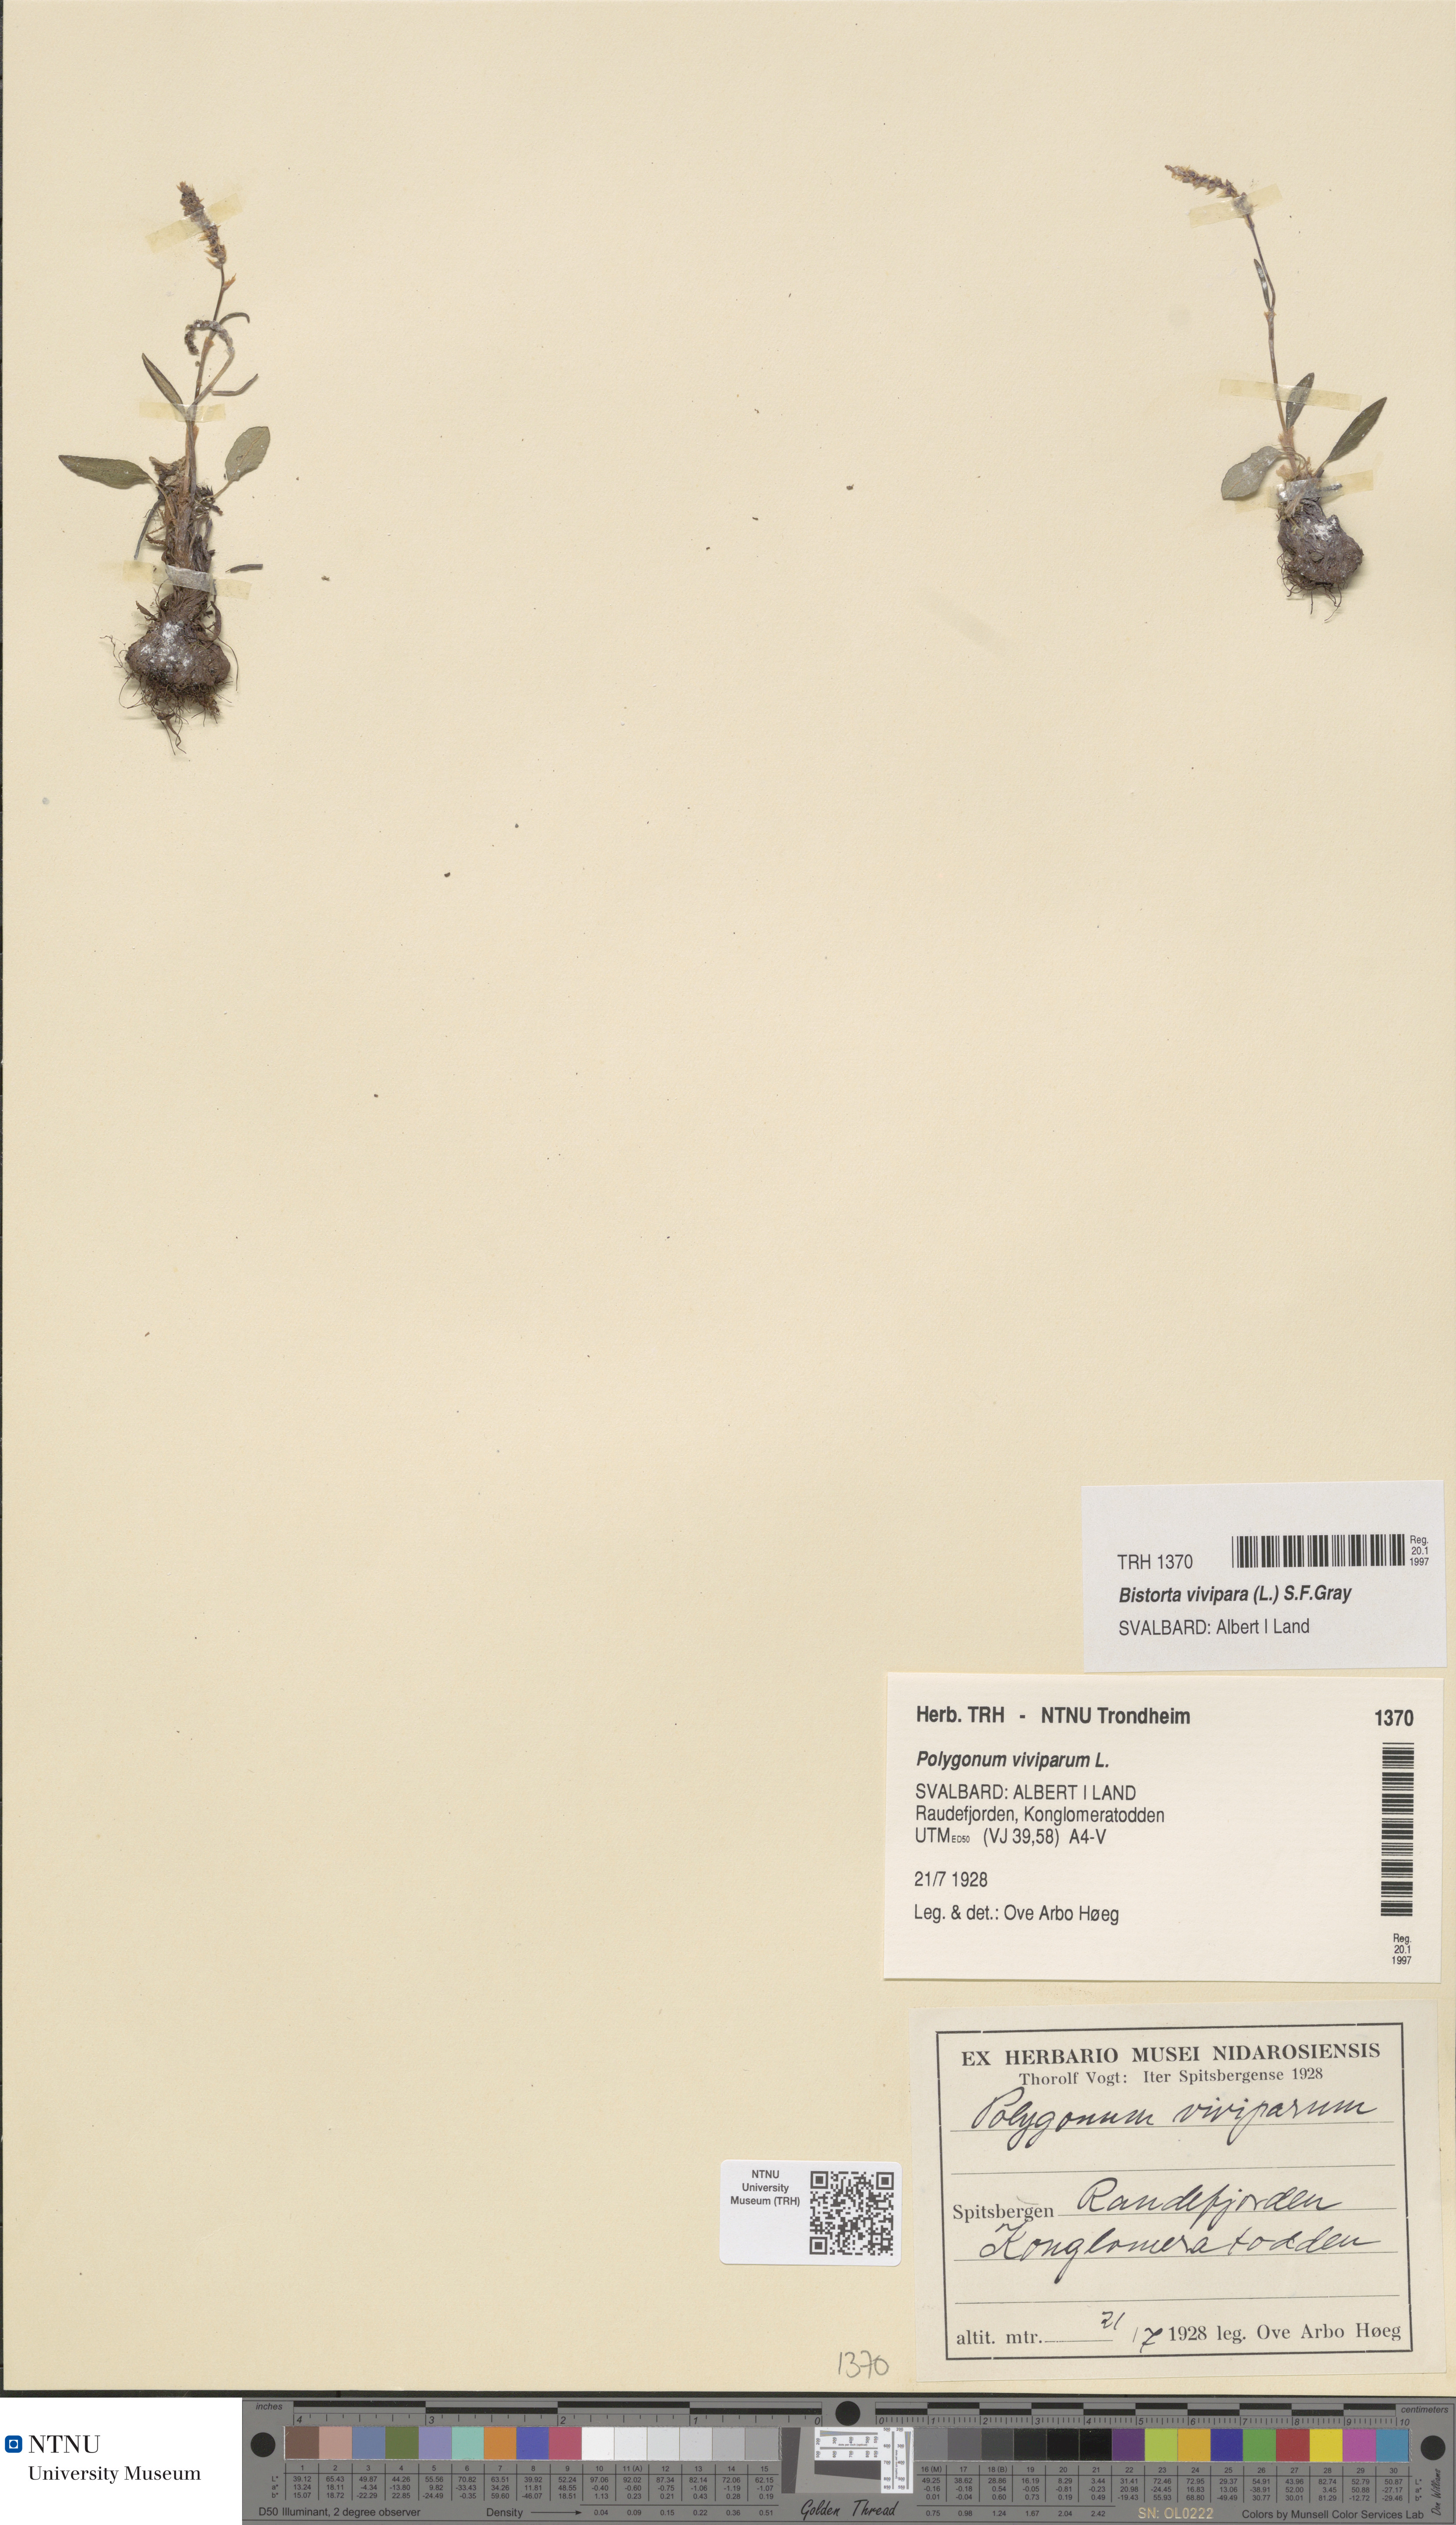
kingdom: Plantae
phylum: Tracheophyta
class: Magnoliopsida
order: Caryophyllales
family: Polygonaceae
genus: Bistorta
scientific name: Bistorta vivipara
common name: Alpine bistort
